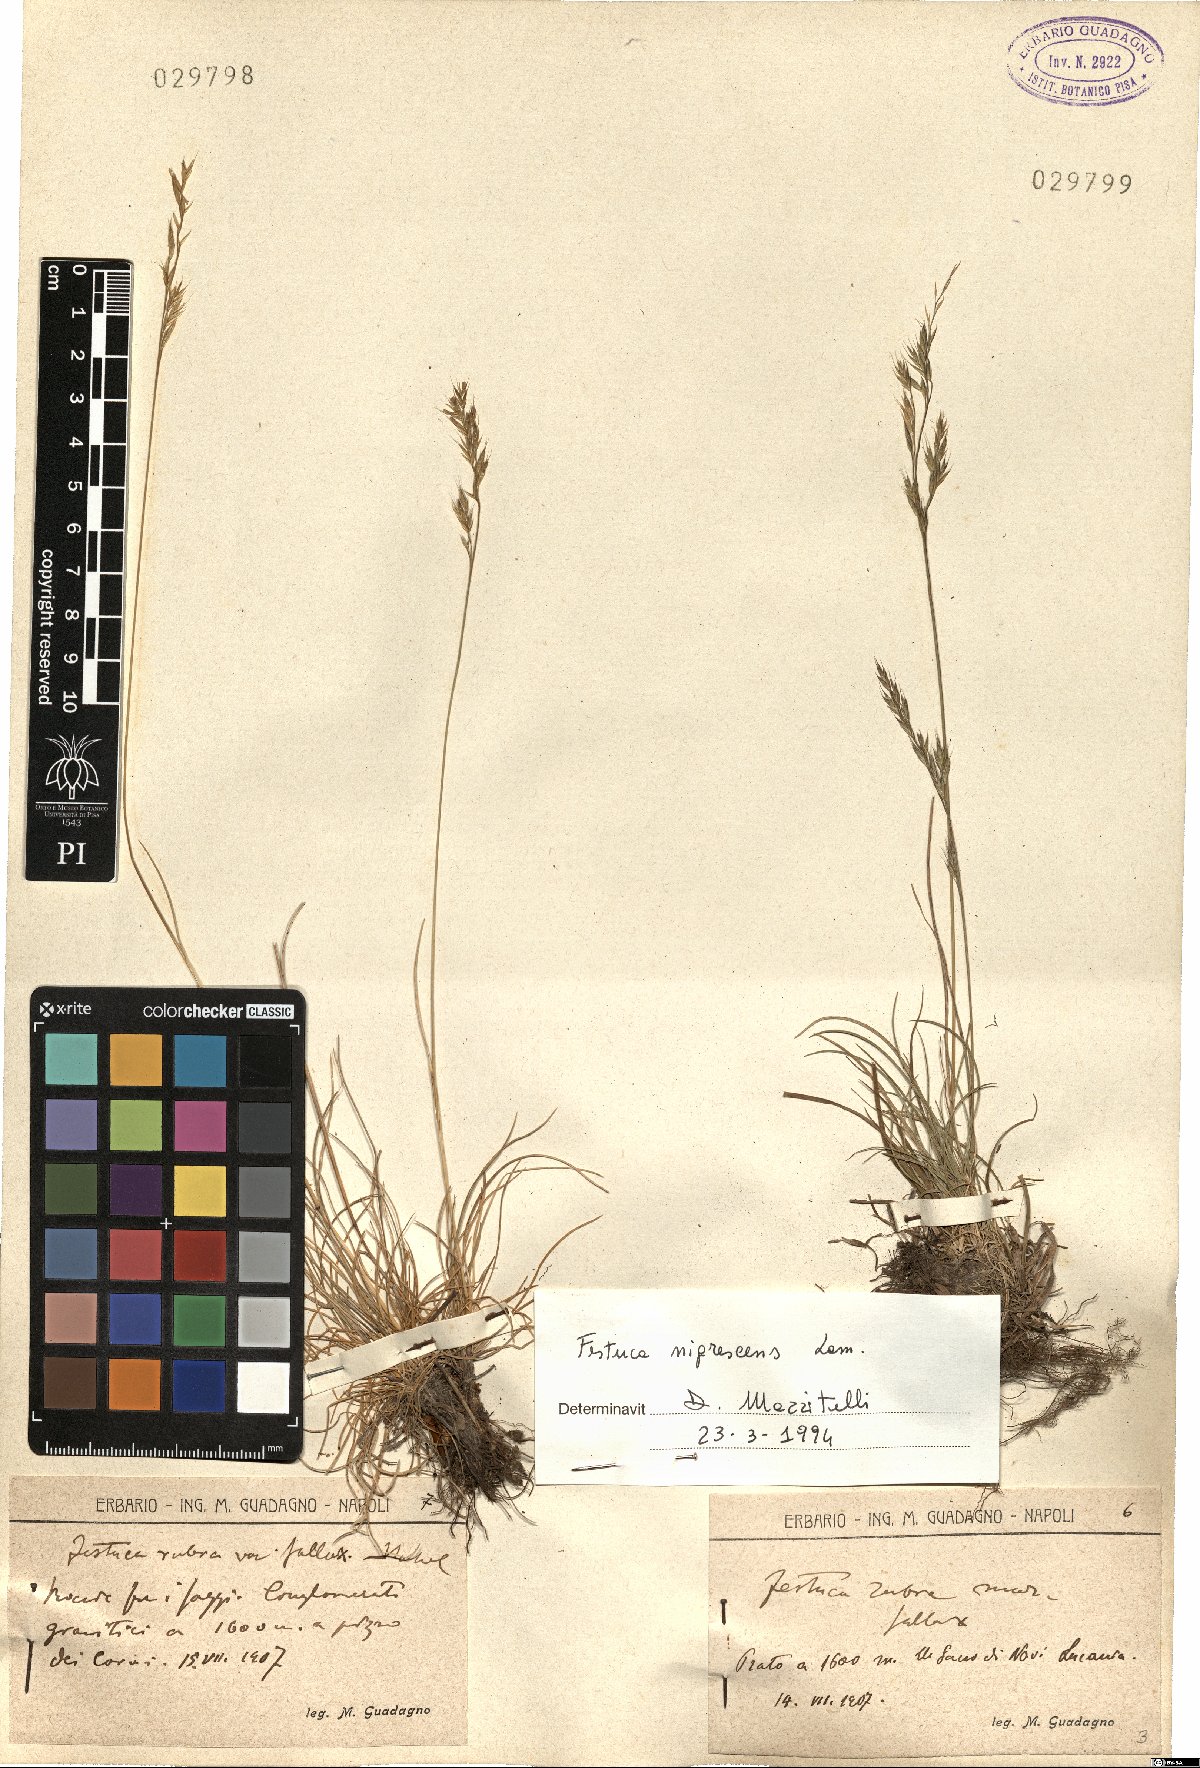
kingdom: Plantae
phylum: Tracheophyta
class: Liliopsida
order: Poales
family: Poaceae
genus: Festuca
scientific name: Festuca nigrescens
